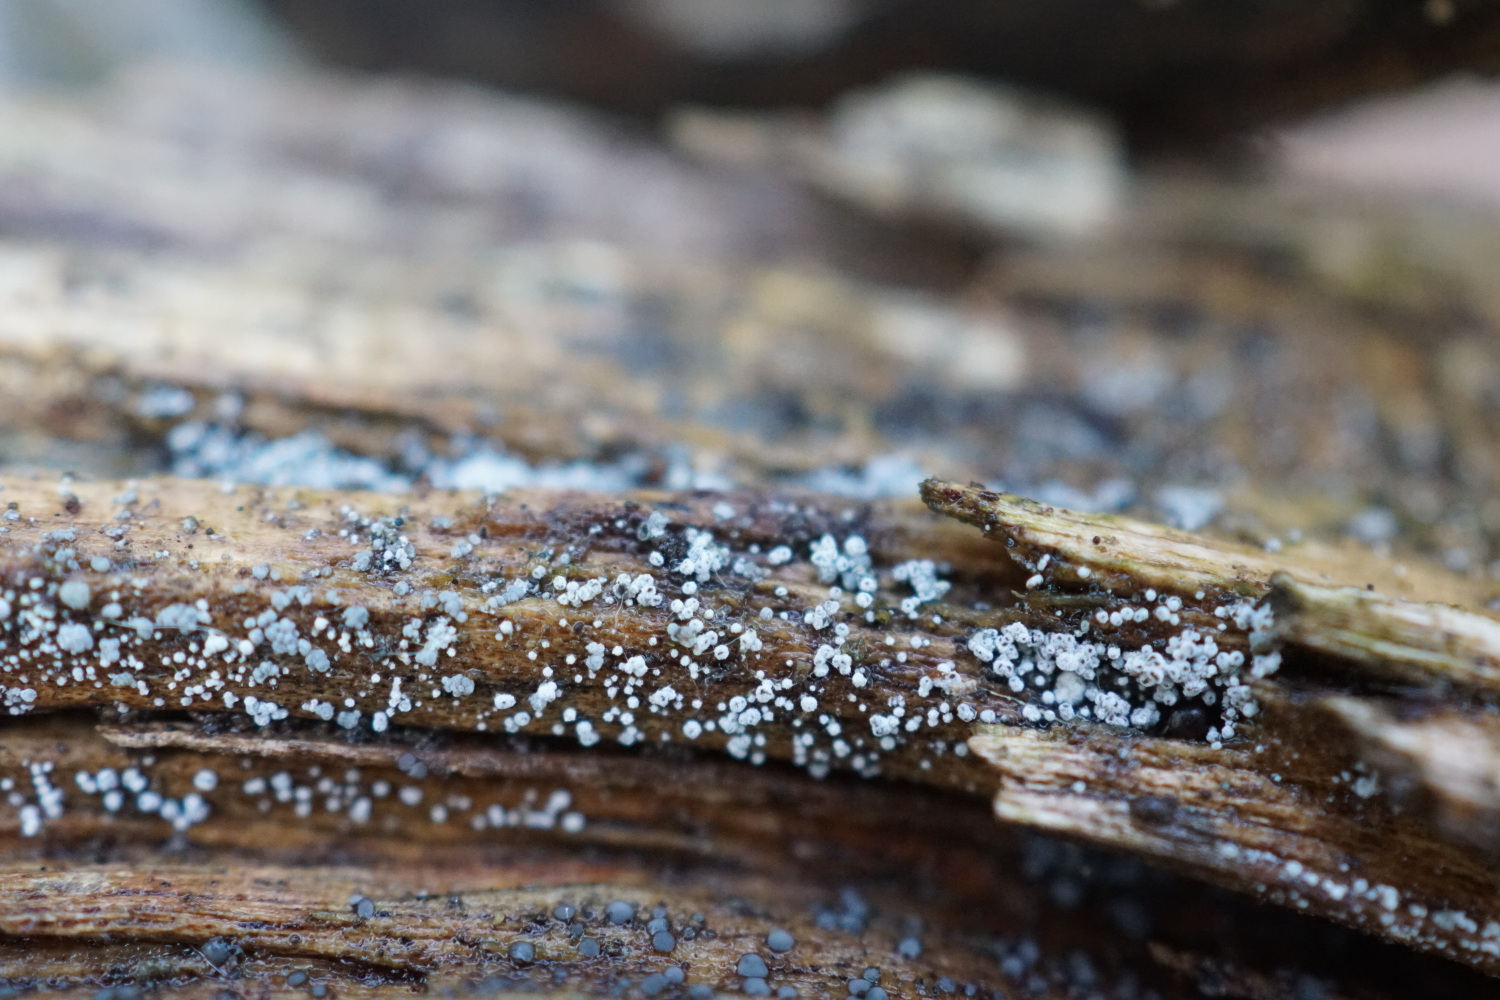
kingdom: Fungi
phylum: Ascomycota
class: Leotiomycetes
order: Helotiales
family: Lachnaceae
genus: Proliferodiscus
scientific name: Proliferodiscus pulveraceus
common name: askegrå frynseskive
